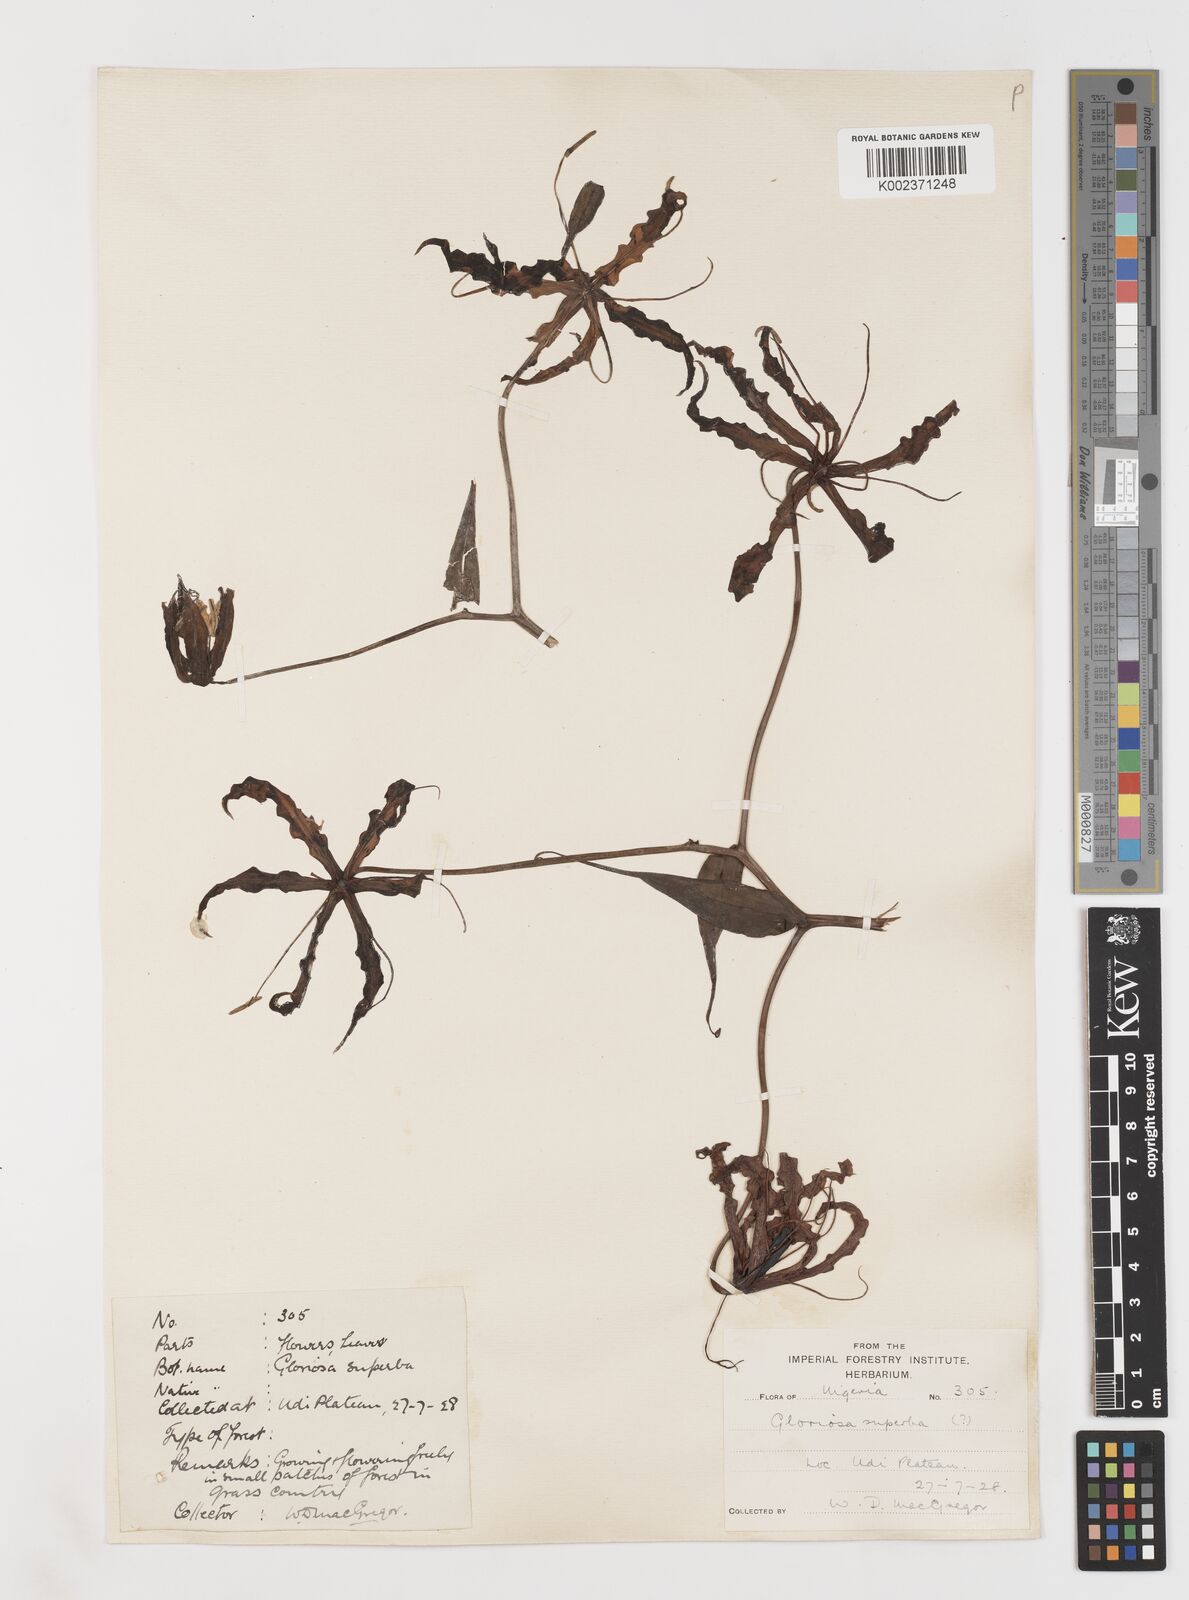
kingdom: Plantae
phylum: Tracheophyta
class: Liliopsida
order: Liliales
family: Colchicaceae
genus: Gloriosa
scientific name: Gloriosa superba
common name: Flame lily
